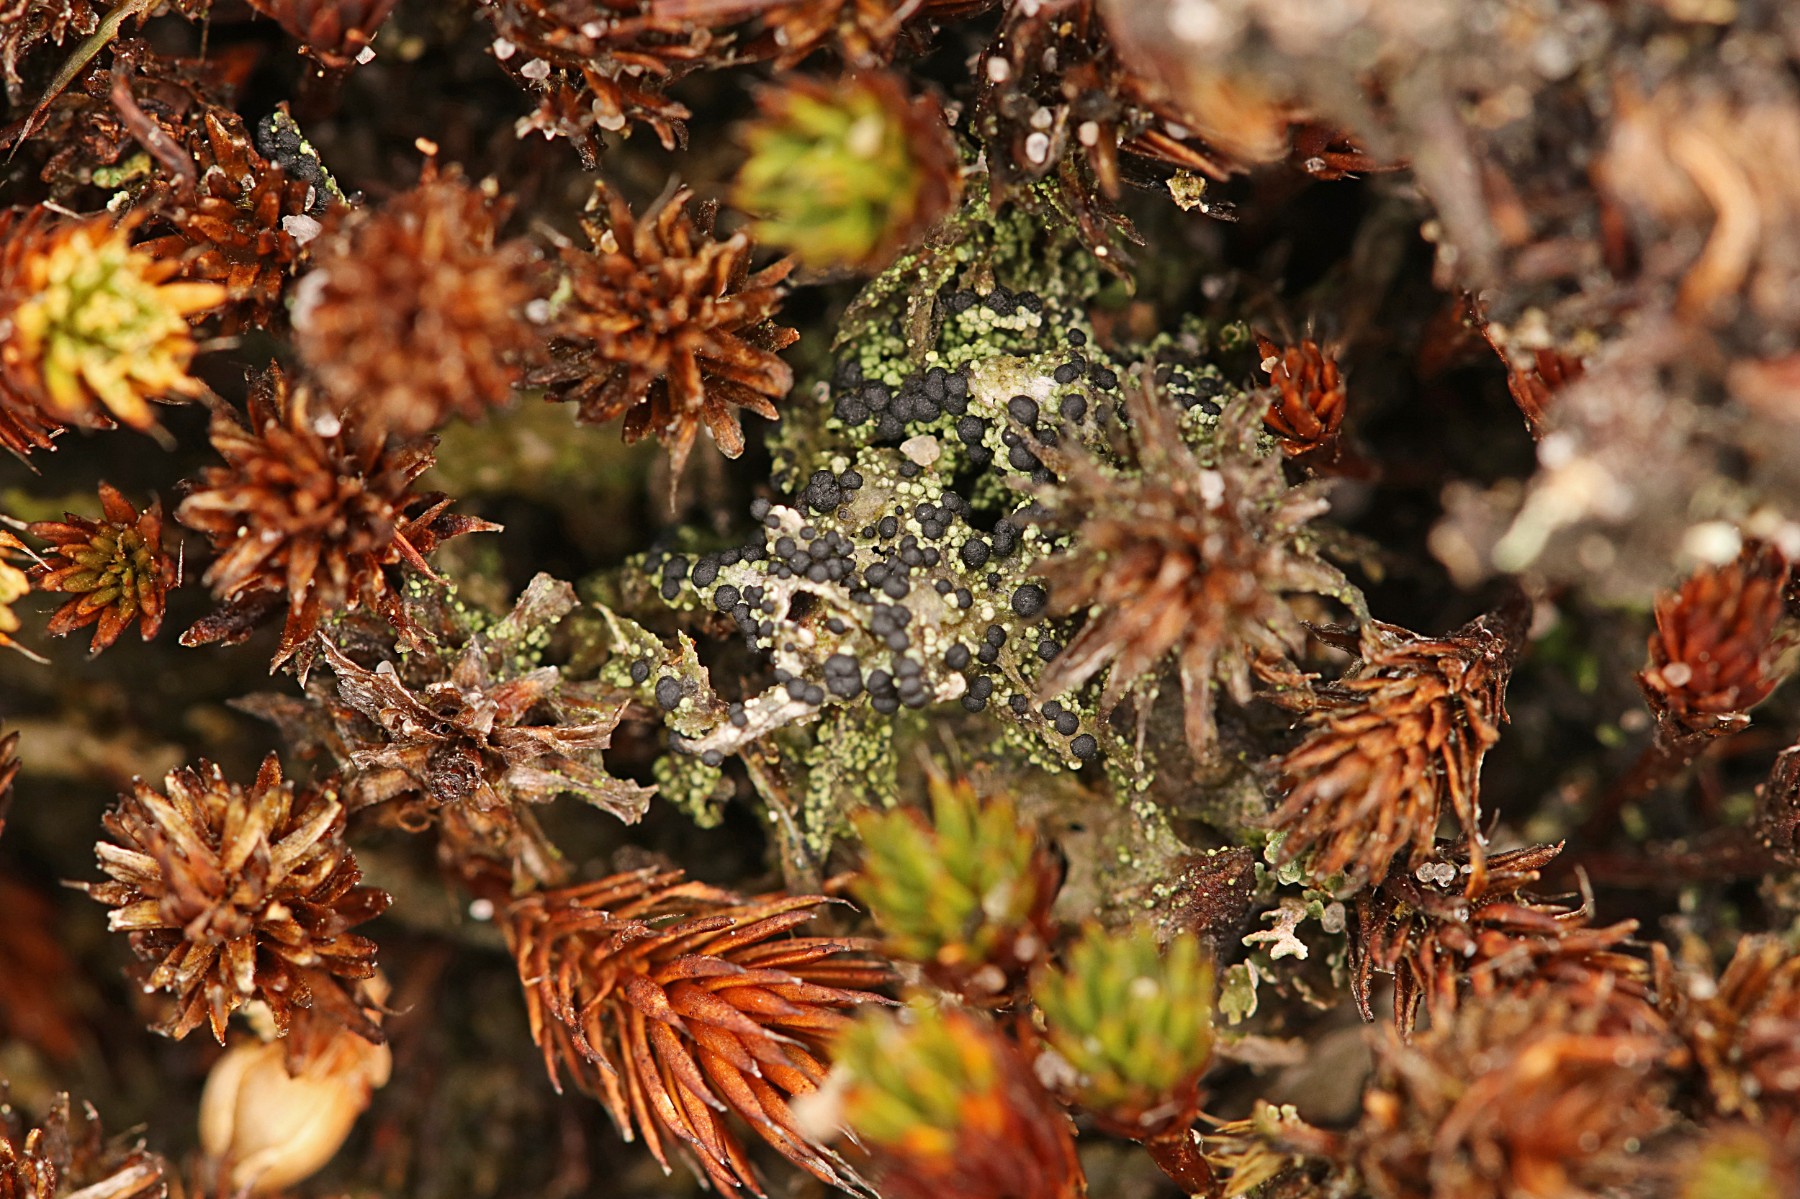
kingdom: Fungi
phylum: Ascomycota
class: Lecanoromycetes
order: Lecanorales
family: Byssolomataceae
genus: Micarea
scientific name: Micarea lignaria
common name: tørve-knaplav
